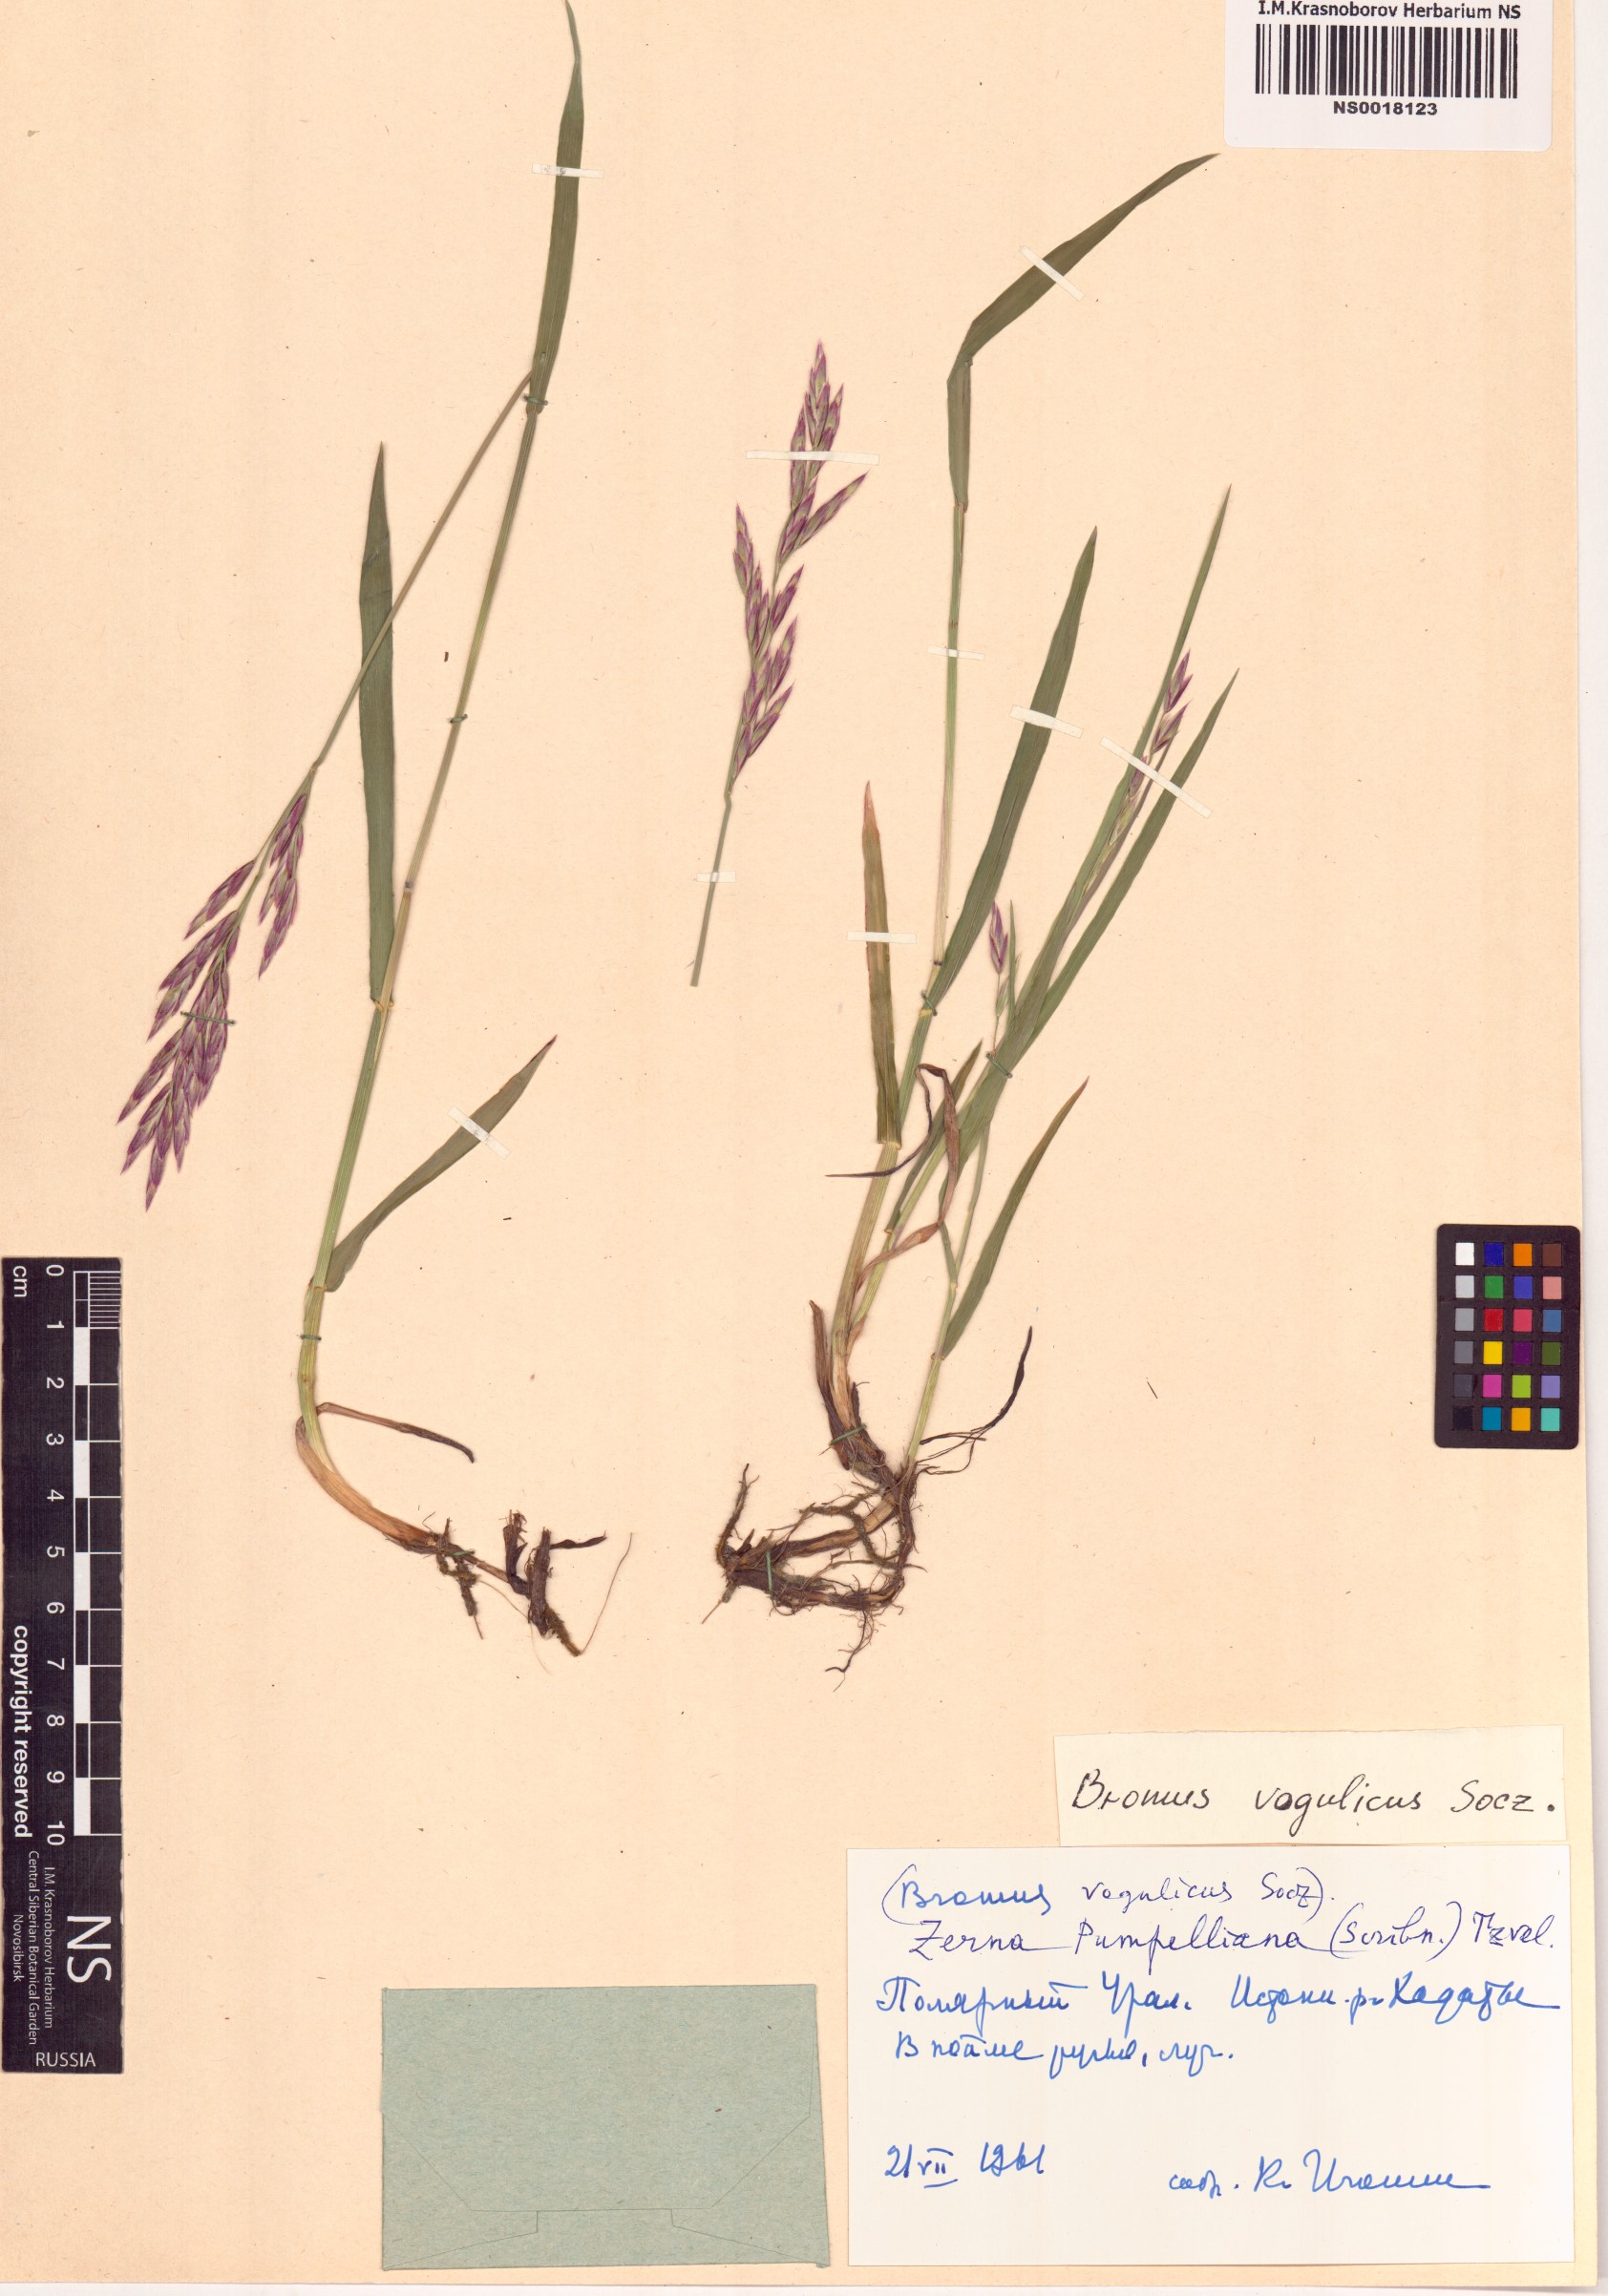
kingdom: Plantae
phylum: Tracheophyta
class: Liliopsida
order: Poales
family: Poaceae
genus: Bromus
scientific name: Bromus pumpellianus
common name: Pumpelly's brome
